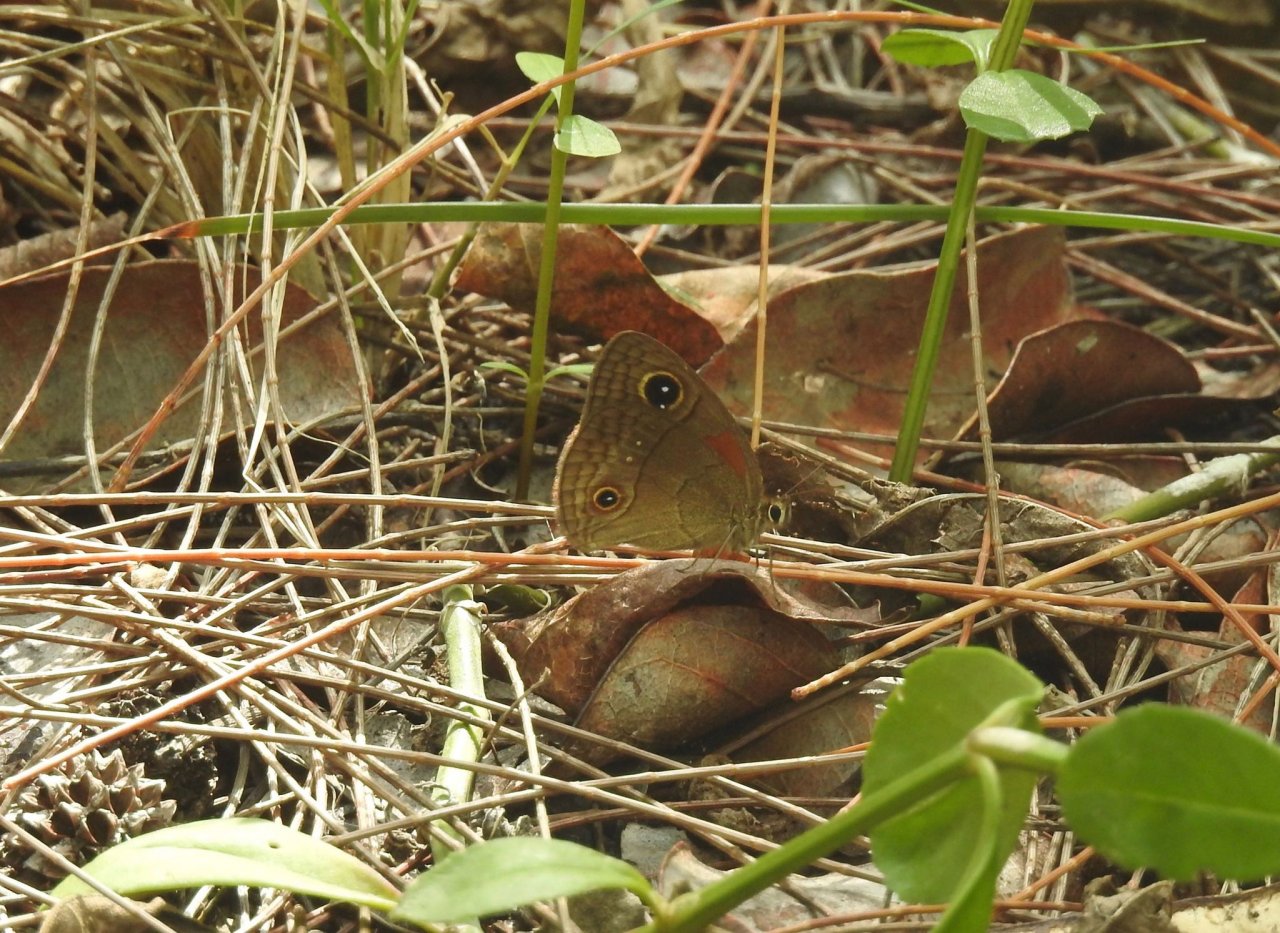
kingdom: Animalia
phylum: Arthropoda
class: Insecta
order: Lepidoptera
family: Nymphalidae
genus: Calisto
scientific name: Calisto herophile
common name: Cuban Calisto
